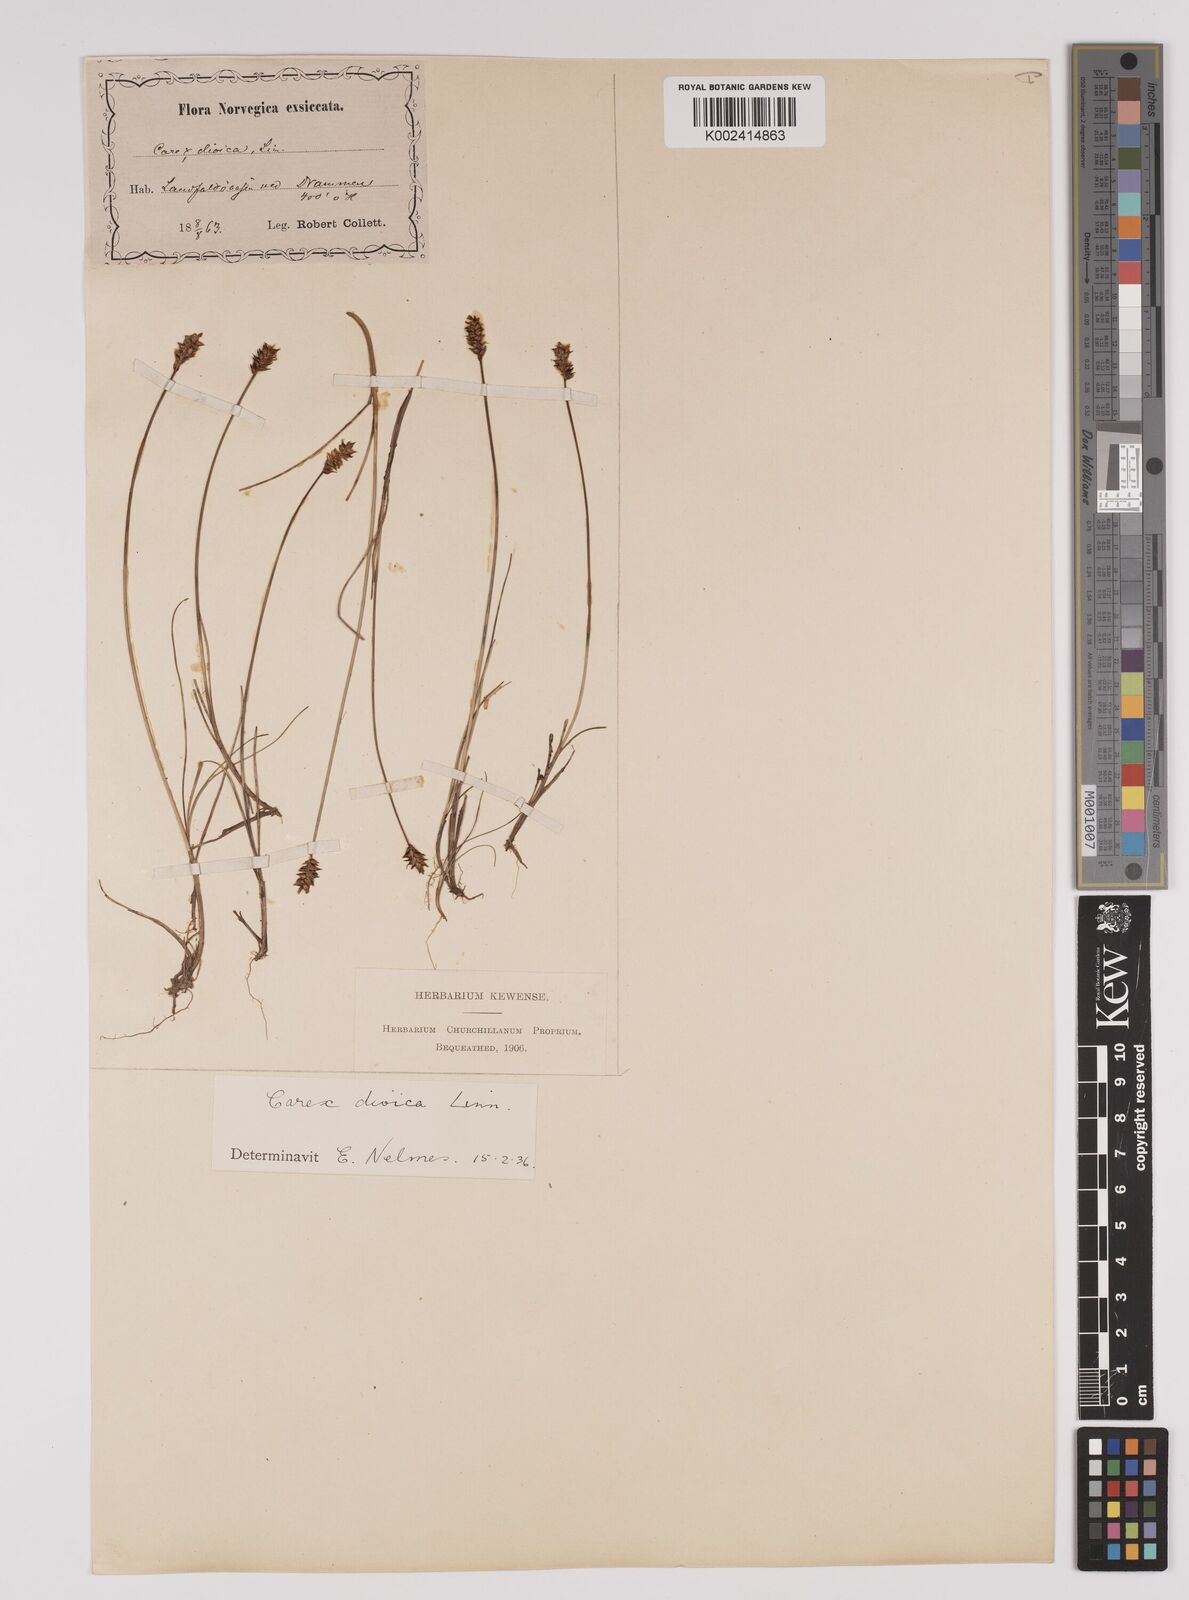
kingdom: Plantae
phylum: Tracheophyta
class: Liliopsida
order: Poales
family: Cyperaceae
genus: Carex
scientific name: Carex dioica
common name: Dioecious sedge
